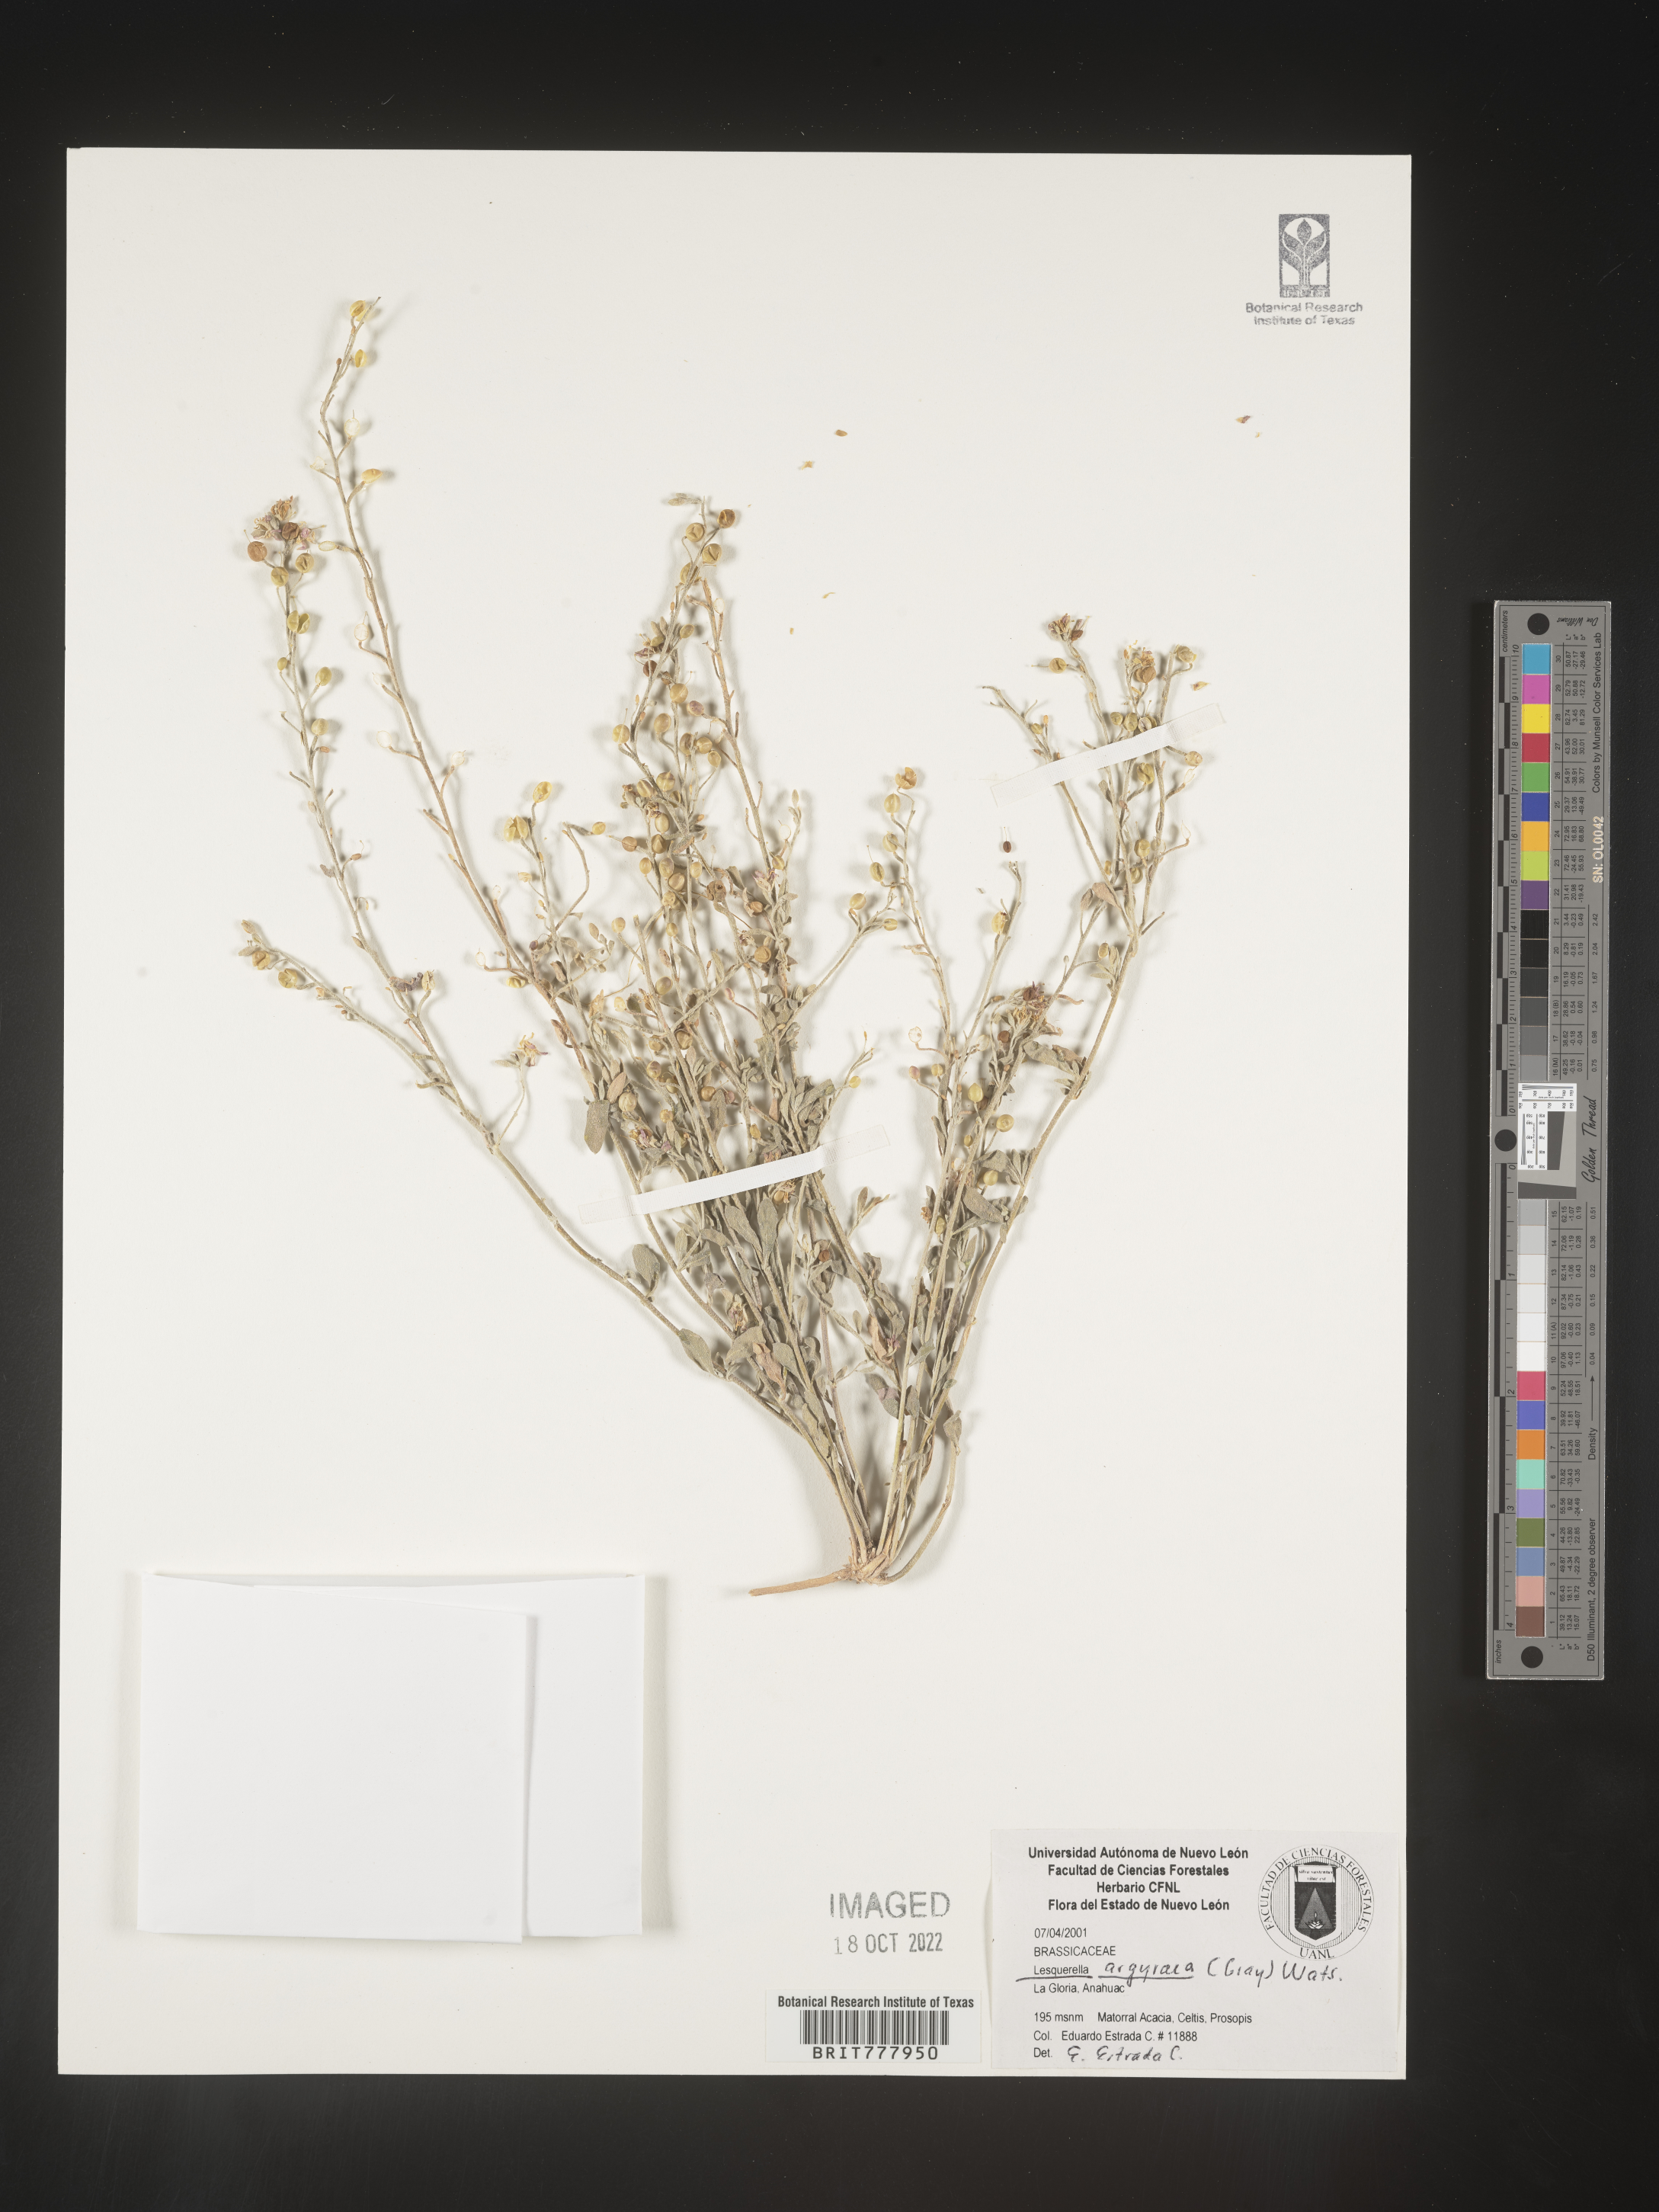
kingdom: Chromista
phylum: Cercozoa
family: Psammonobiotidae
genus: Lesquerella
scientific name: Lesquerella
